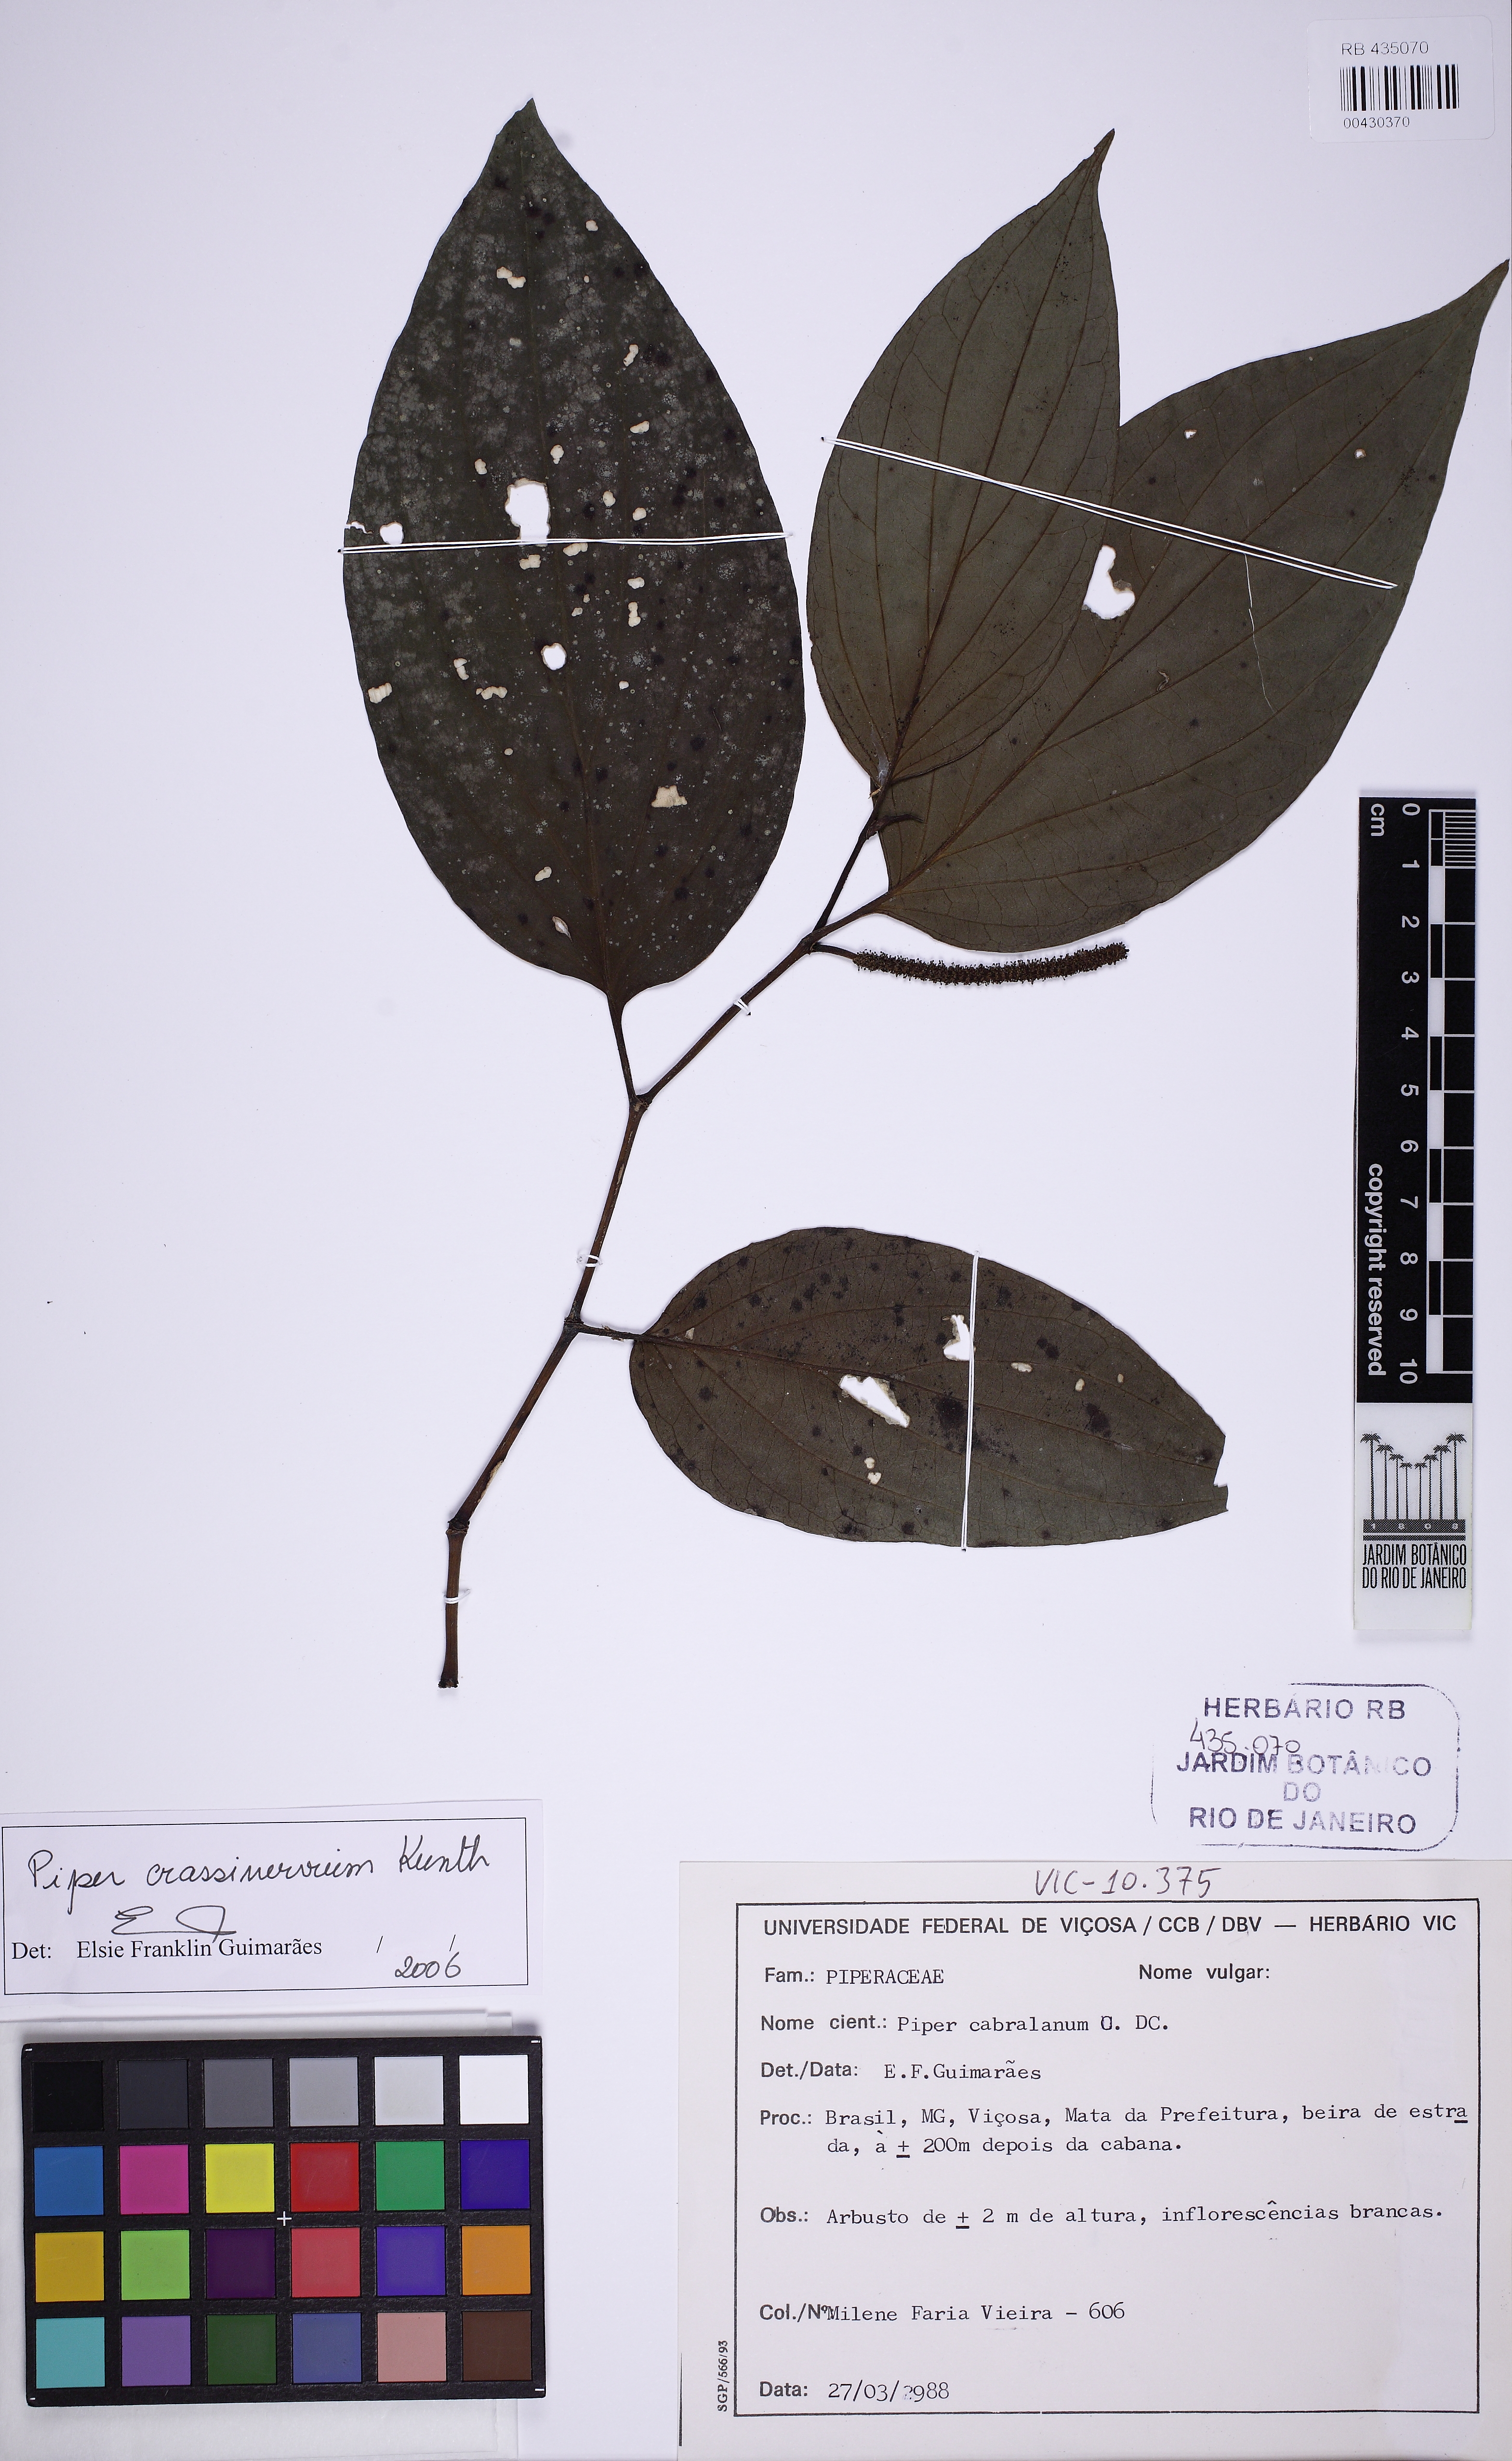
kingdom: Plantae
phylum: Tracheophyta
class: Magnoliopsida
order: Piperales
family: Piperaceae
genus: Piper
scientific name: Piper crassinervium
